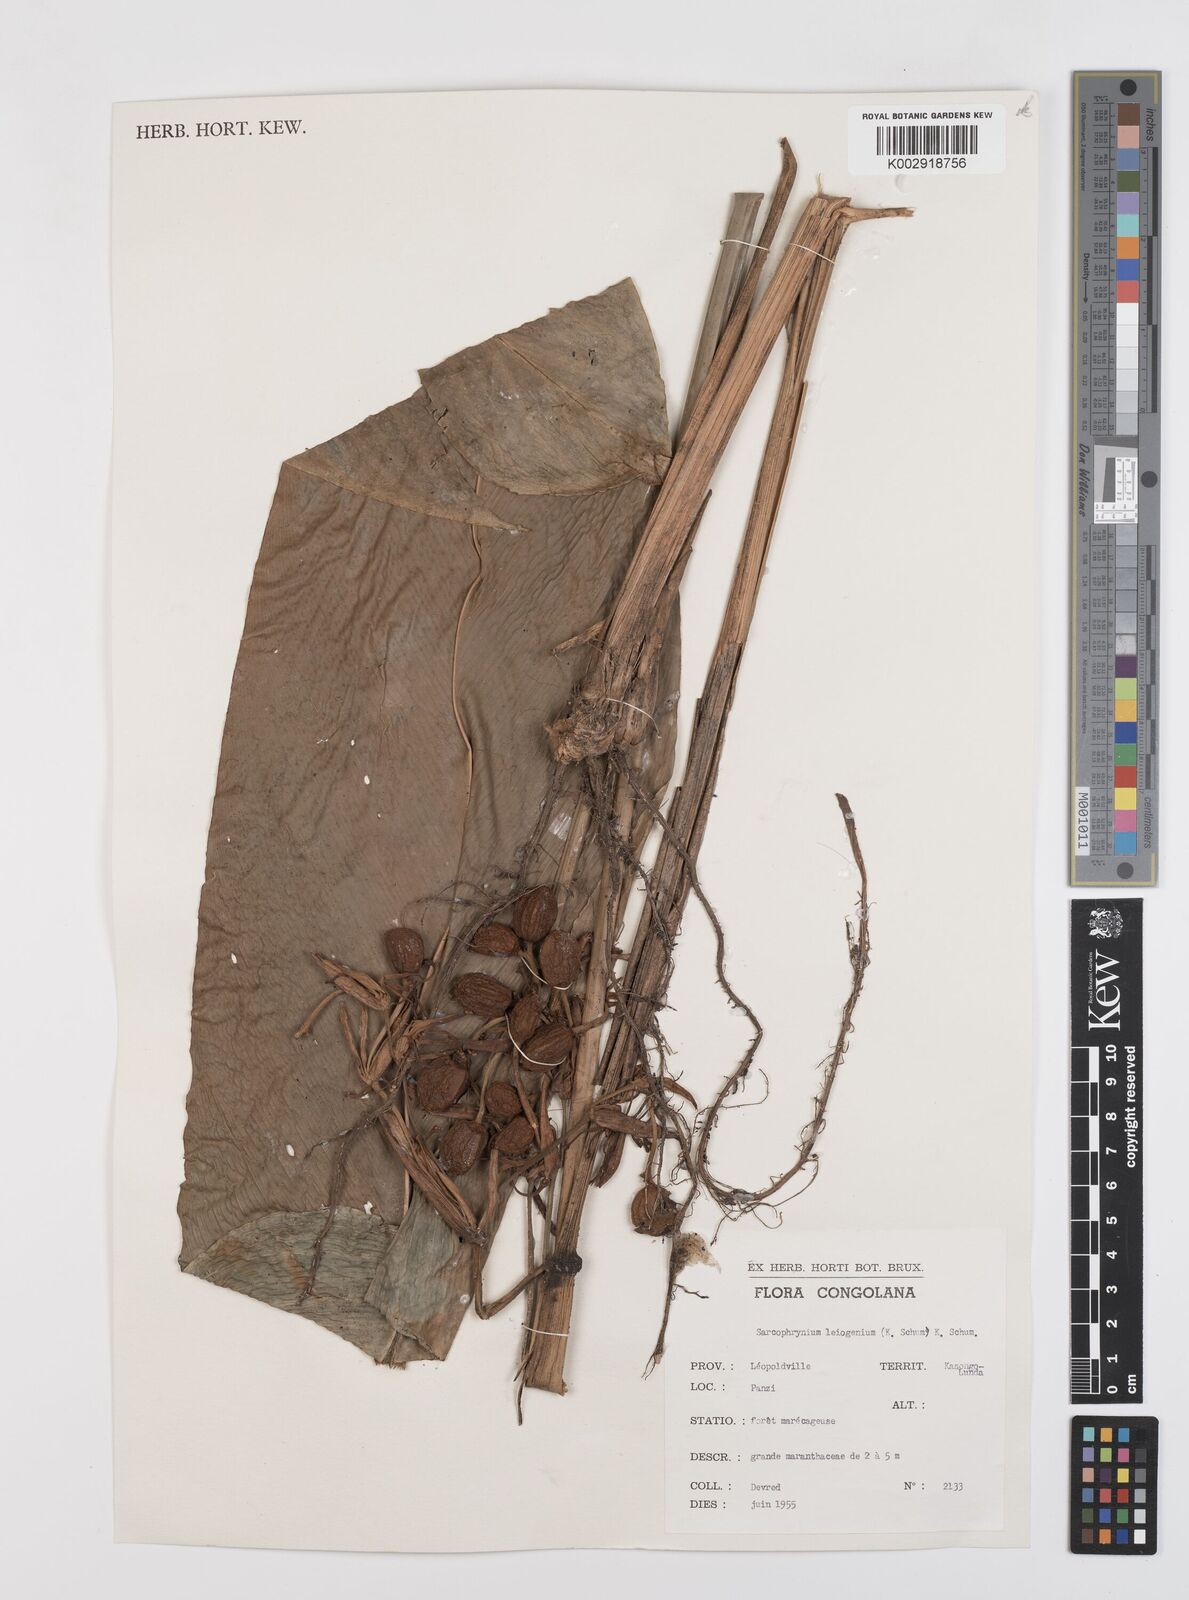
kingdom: Plantae
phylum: Tracheophyta
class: Liliopsida
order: Zingiberales
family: Marantaceae
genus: Sarcophrynium
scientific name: Sarcophrynium prionogonium
